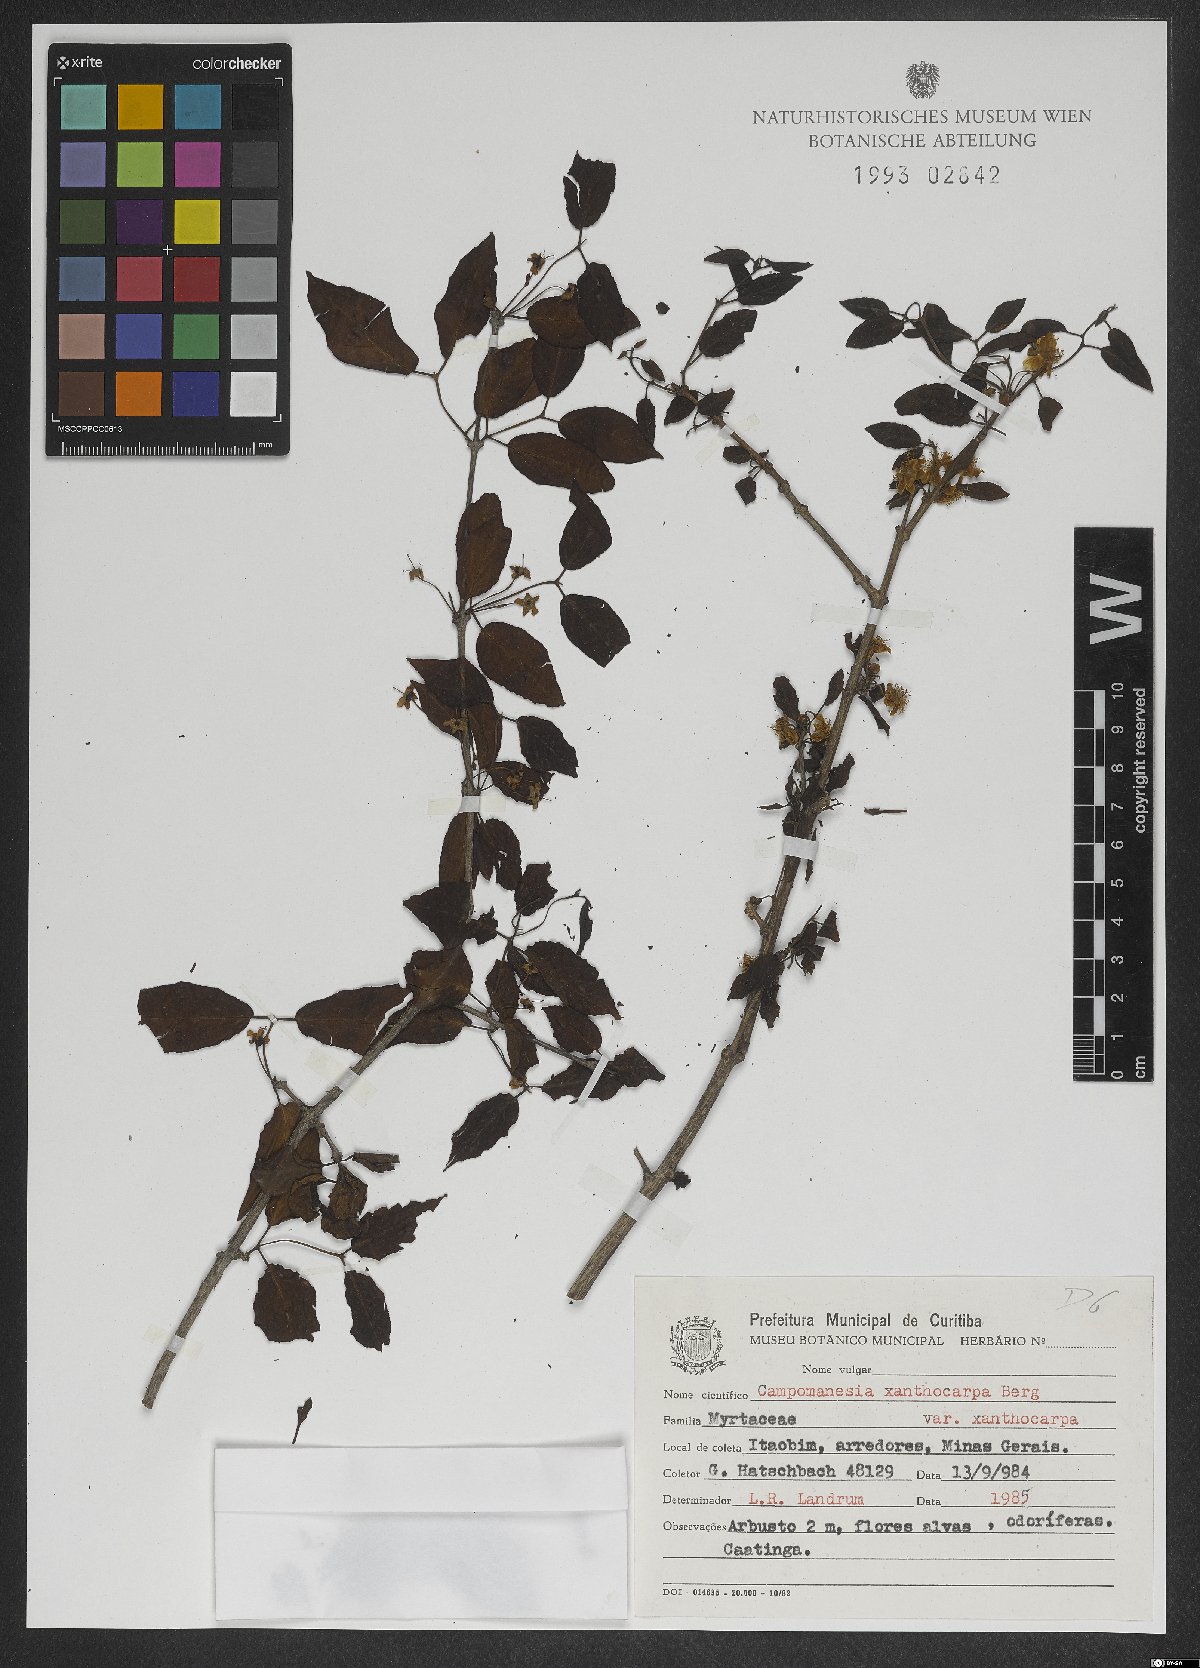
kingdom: Plantae
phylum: Tracheophyta
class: Magnoliopsida
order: Myrtales
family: Myrtaceae
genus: Campomanesia
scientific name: Campomanesia xanthocarpa
